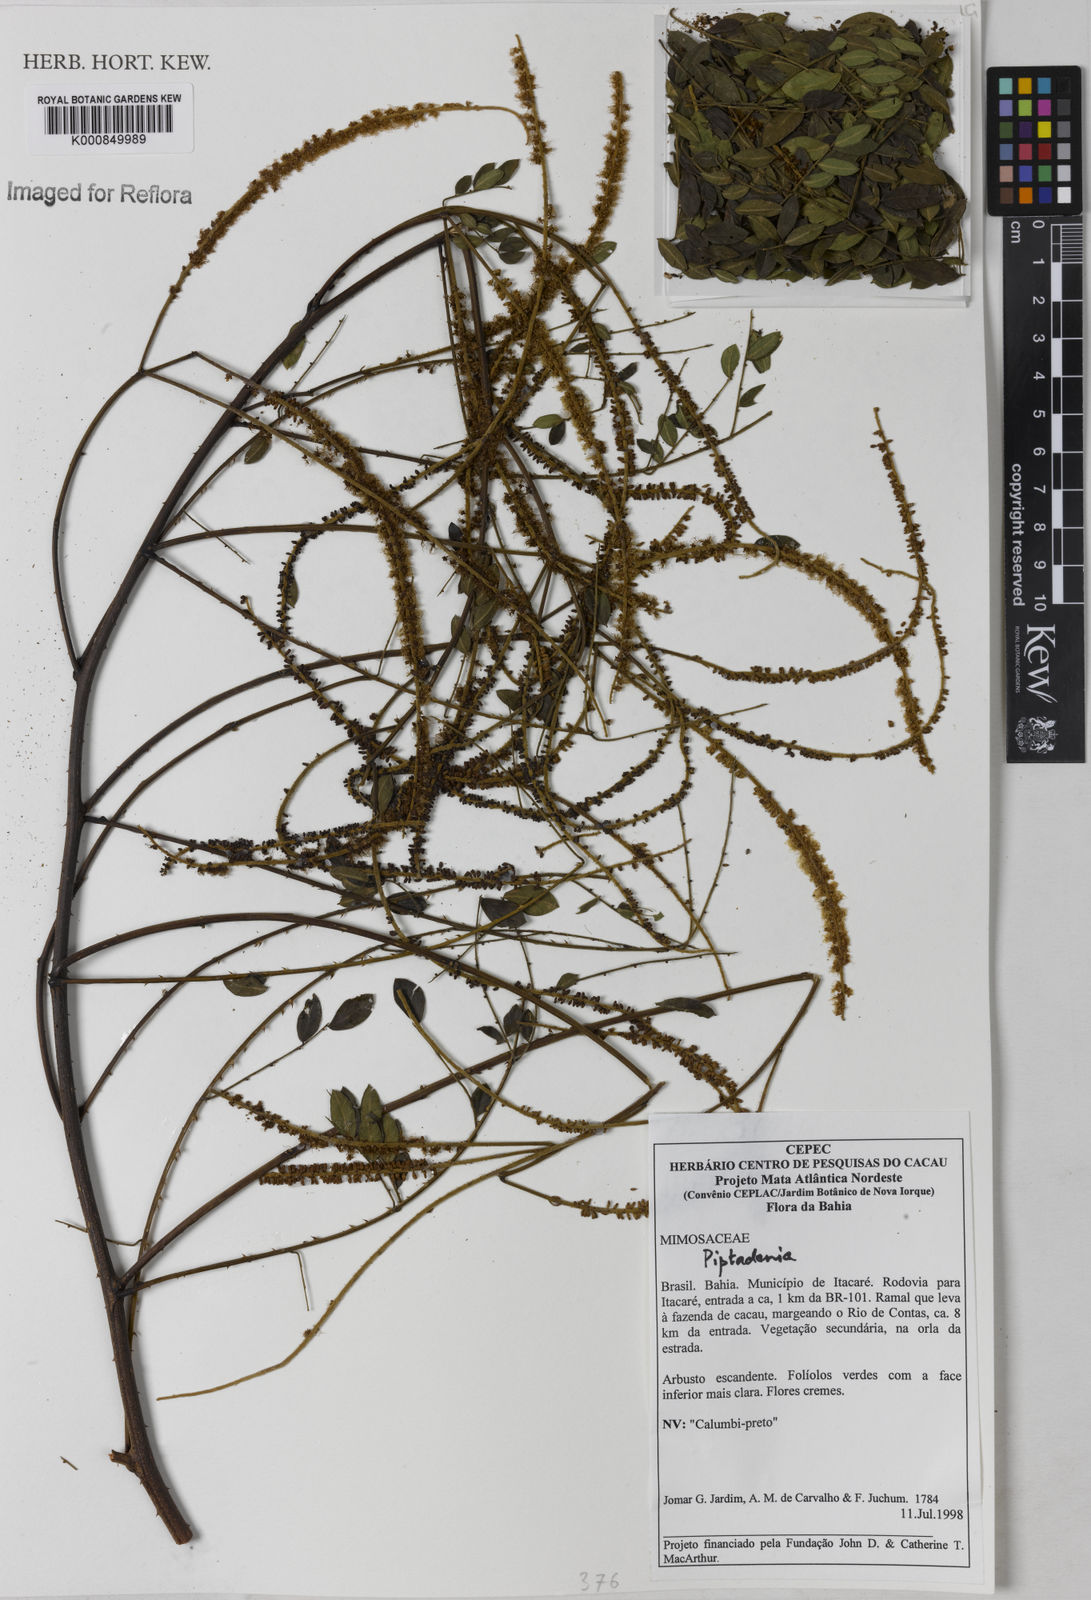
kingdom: Plantae
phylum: Tracheophyta
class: Magnoliopsida
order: Fabales
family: Fabaceae
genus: Piptadenia
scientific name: Piptadenia
